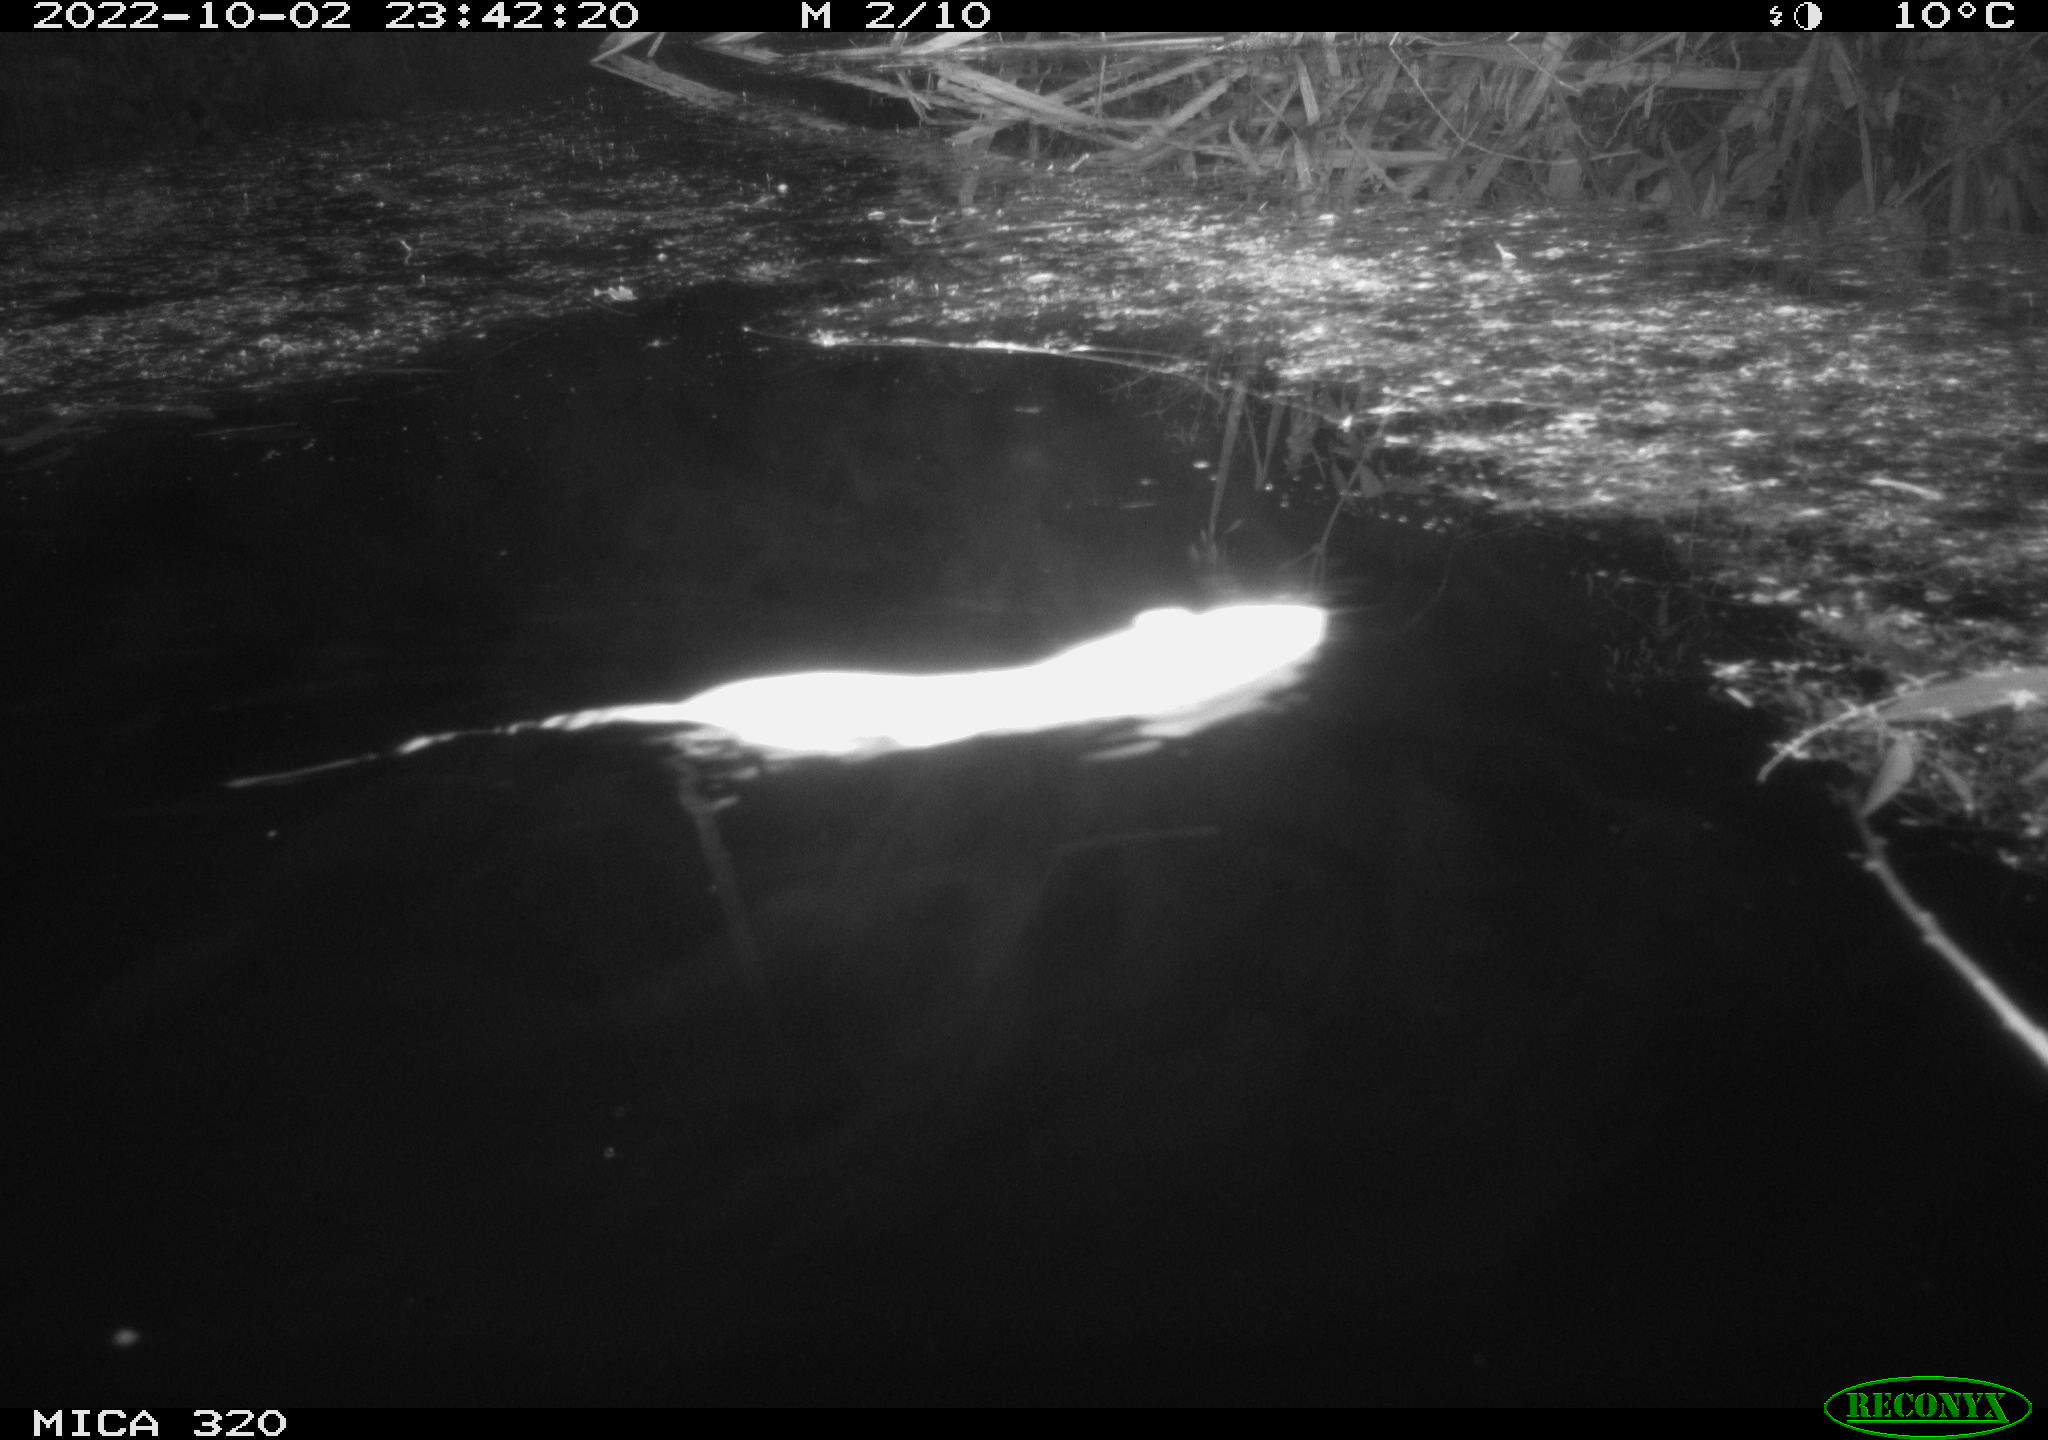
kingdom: Animalia
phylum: Chordata
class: Mammalia
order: Rodentia
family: Muridae
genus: Rattus
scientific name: Rattus norvegicus
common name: Brown rat
